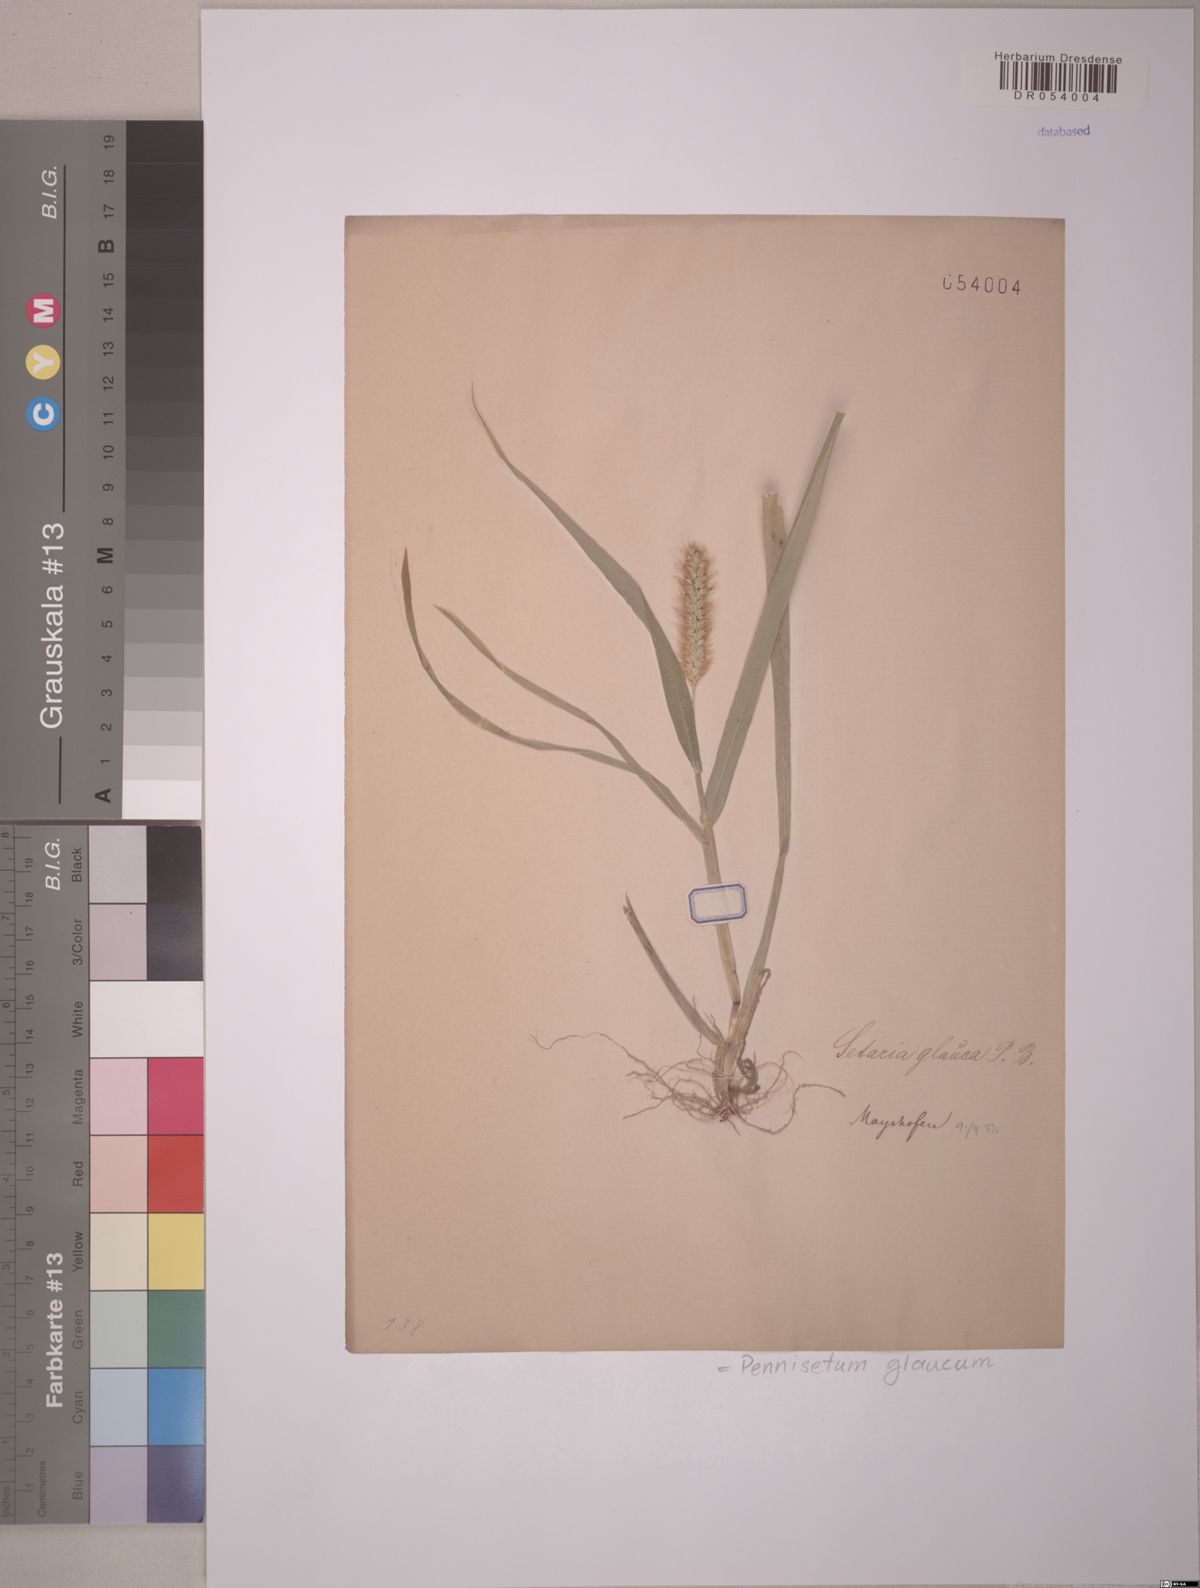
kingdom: Plantae
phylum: Tracheophyta
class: Liliopsida
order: Poales
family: Poaceae
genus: Cenchrus
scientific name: Cenchrus americanus
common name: Pearl millet
